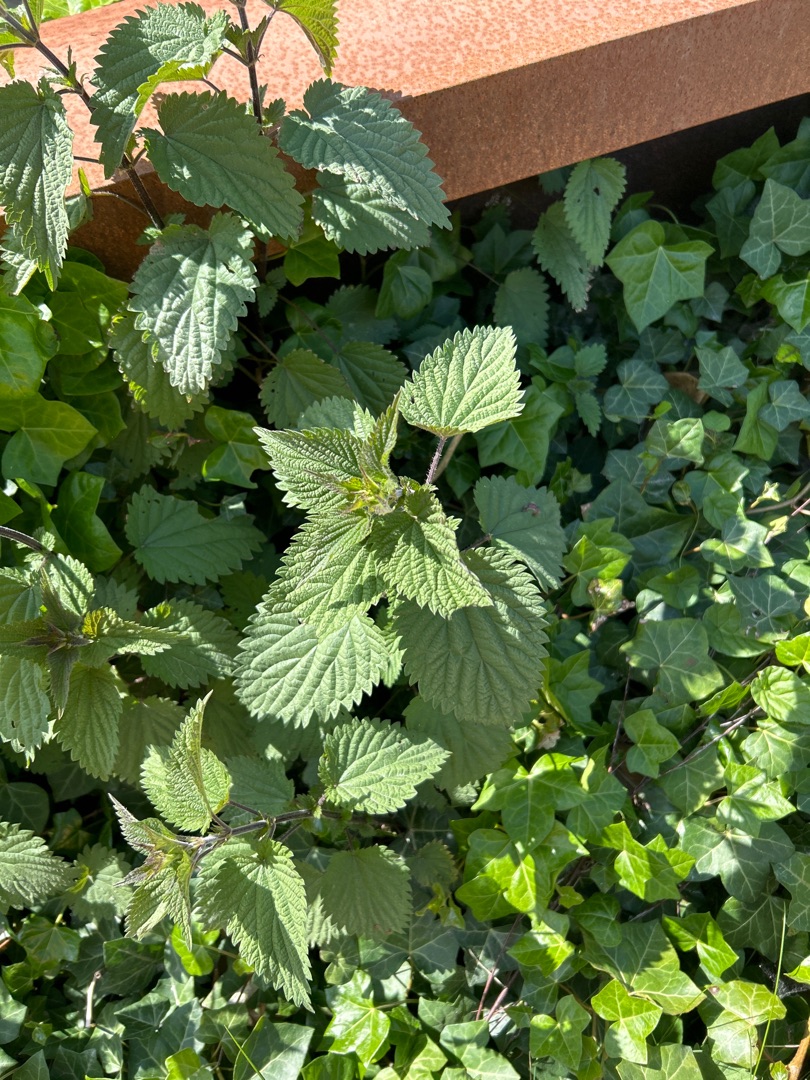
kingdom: Plantae
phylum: Tracheophyta
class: Magnoliopsida
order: Rosales
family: Urticaceae
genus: Urtica
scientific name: Urtica dioica
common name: Stor nælde
